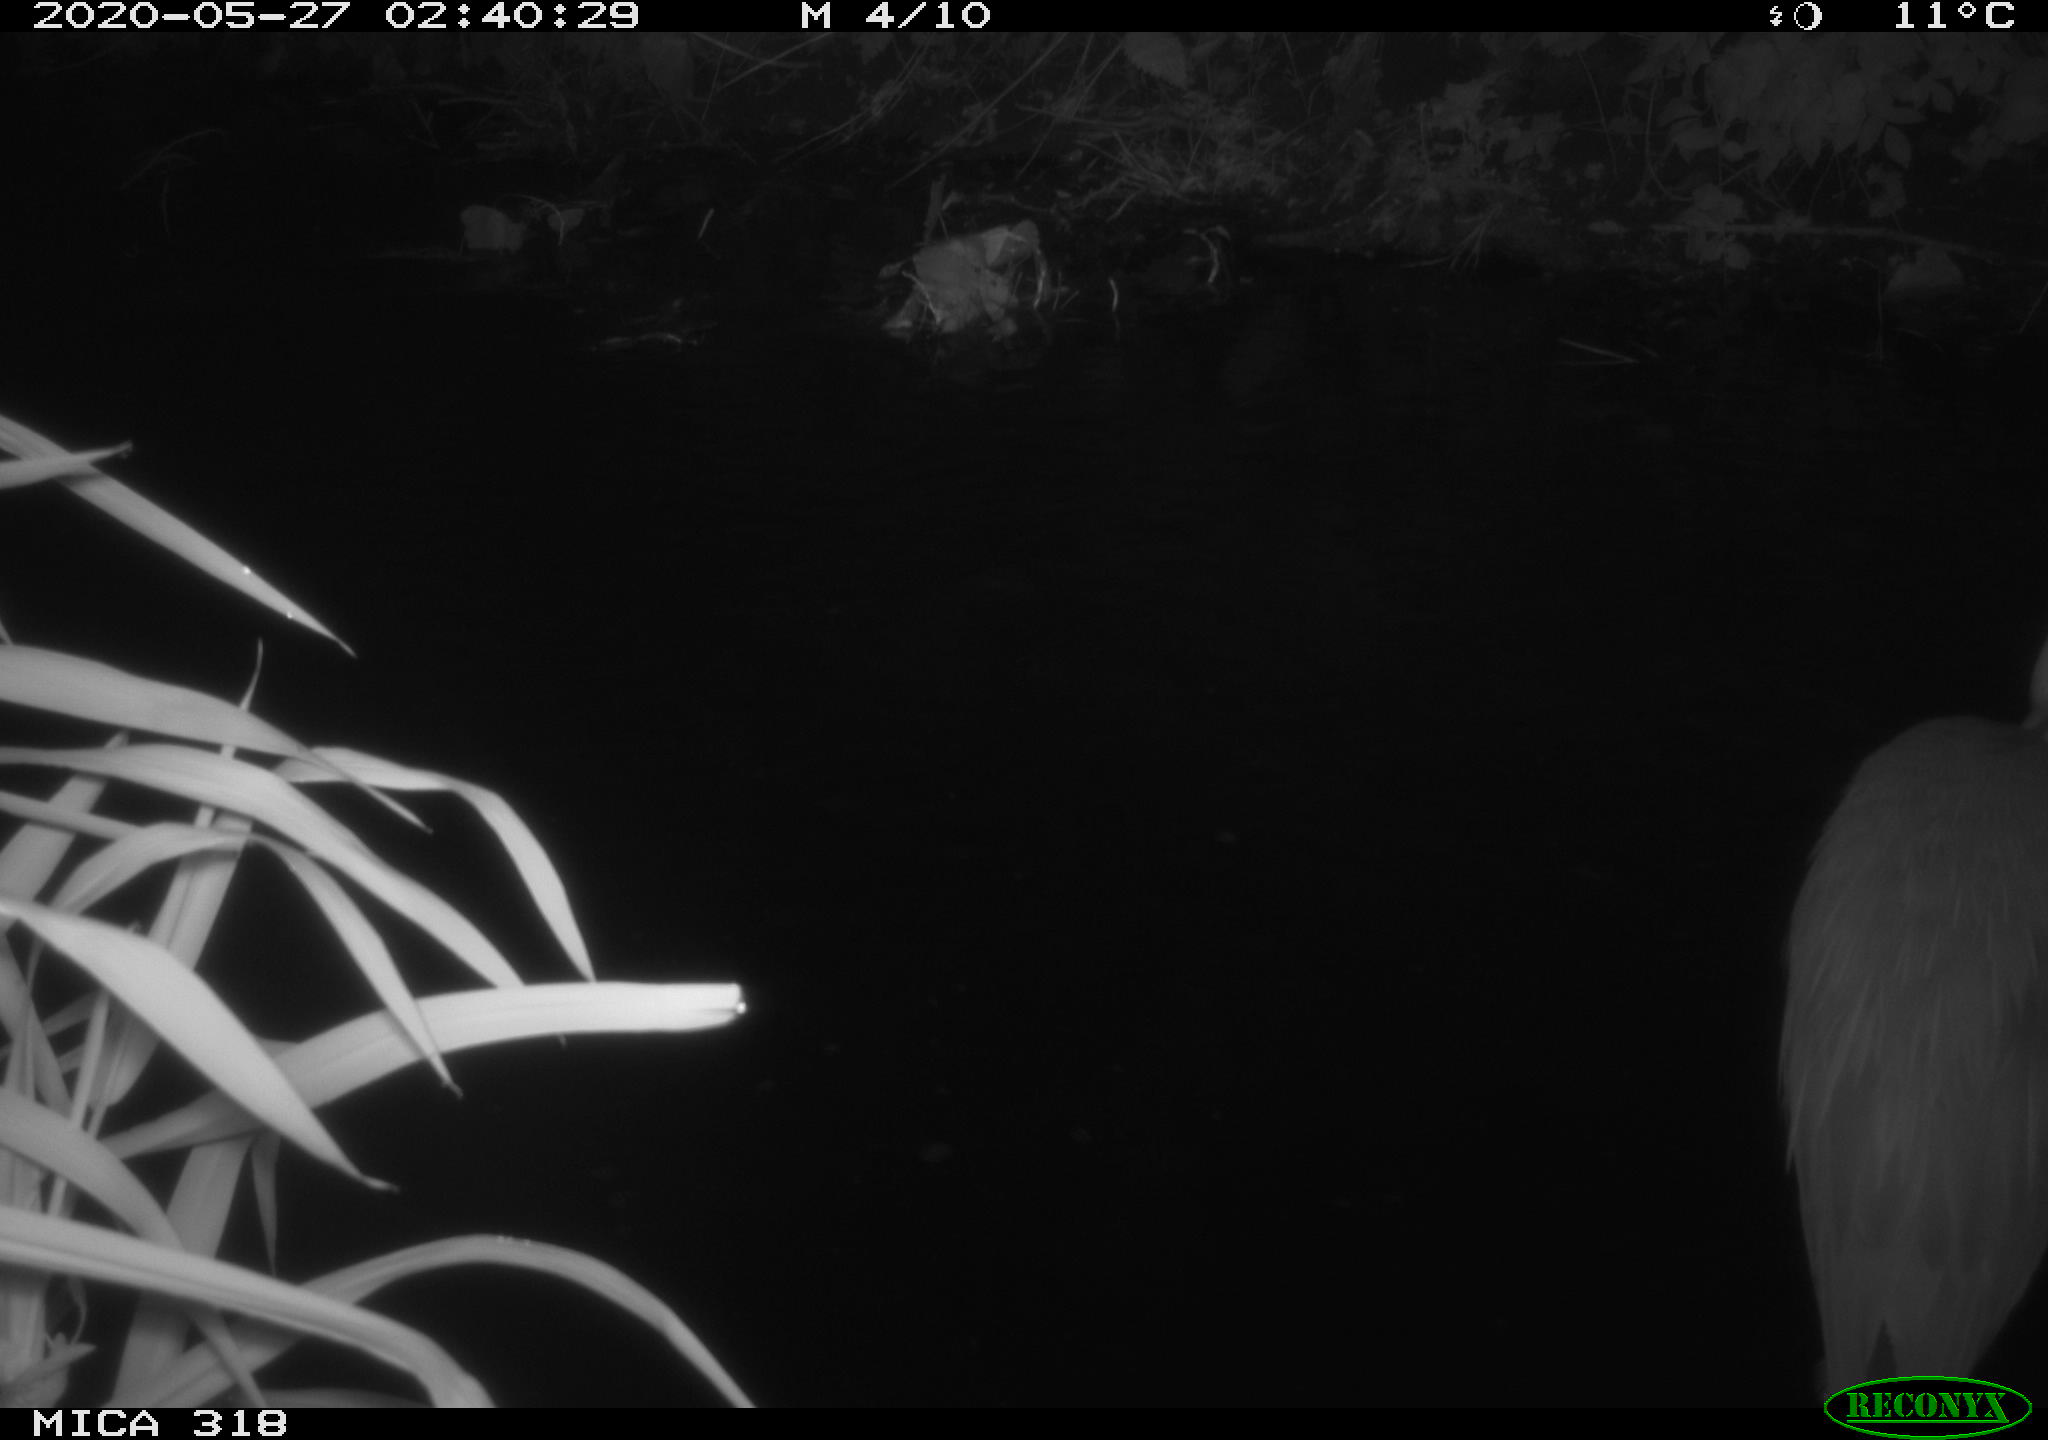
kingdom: Animalia
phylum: Chordata
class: Aves
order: Pelecaniformes
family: Ardeidae
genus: Ardea
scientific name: Ardea cinerea
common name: Grey heron
